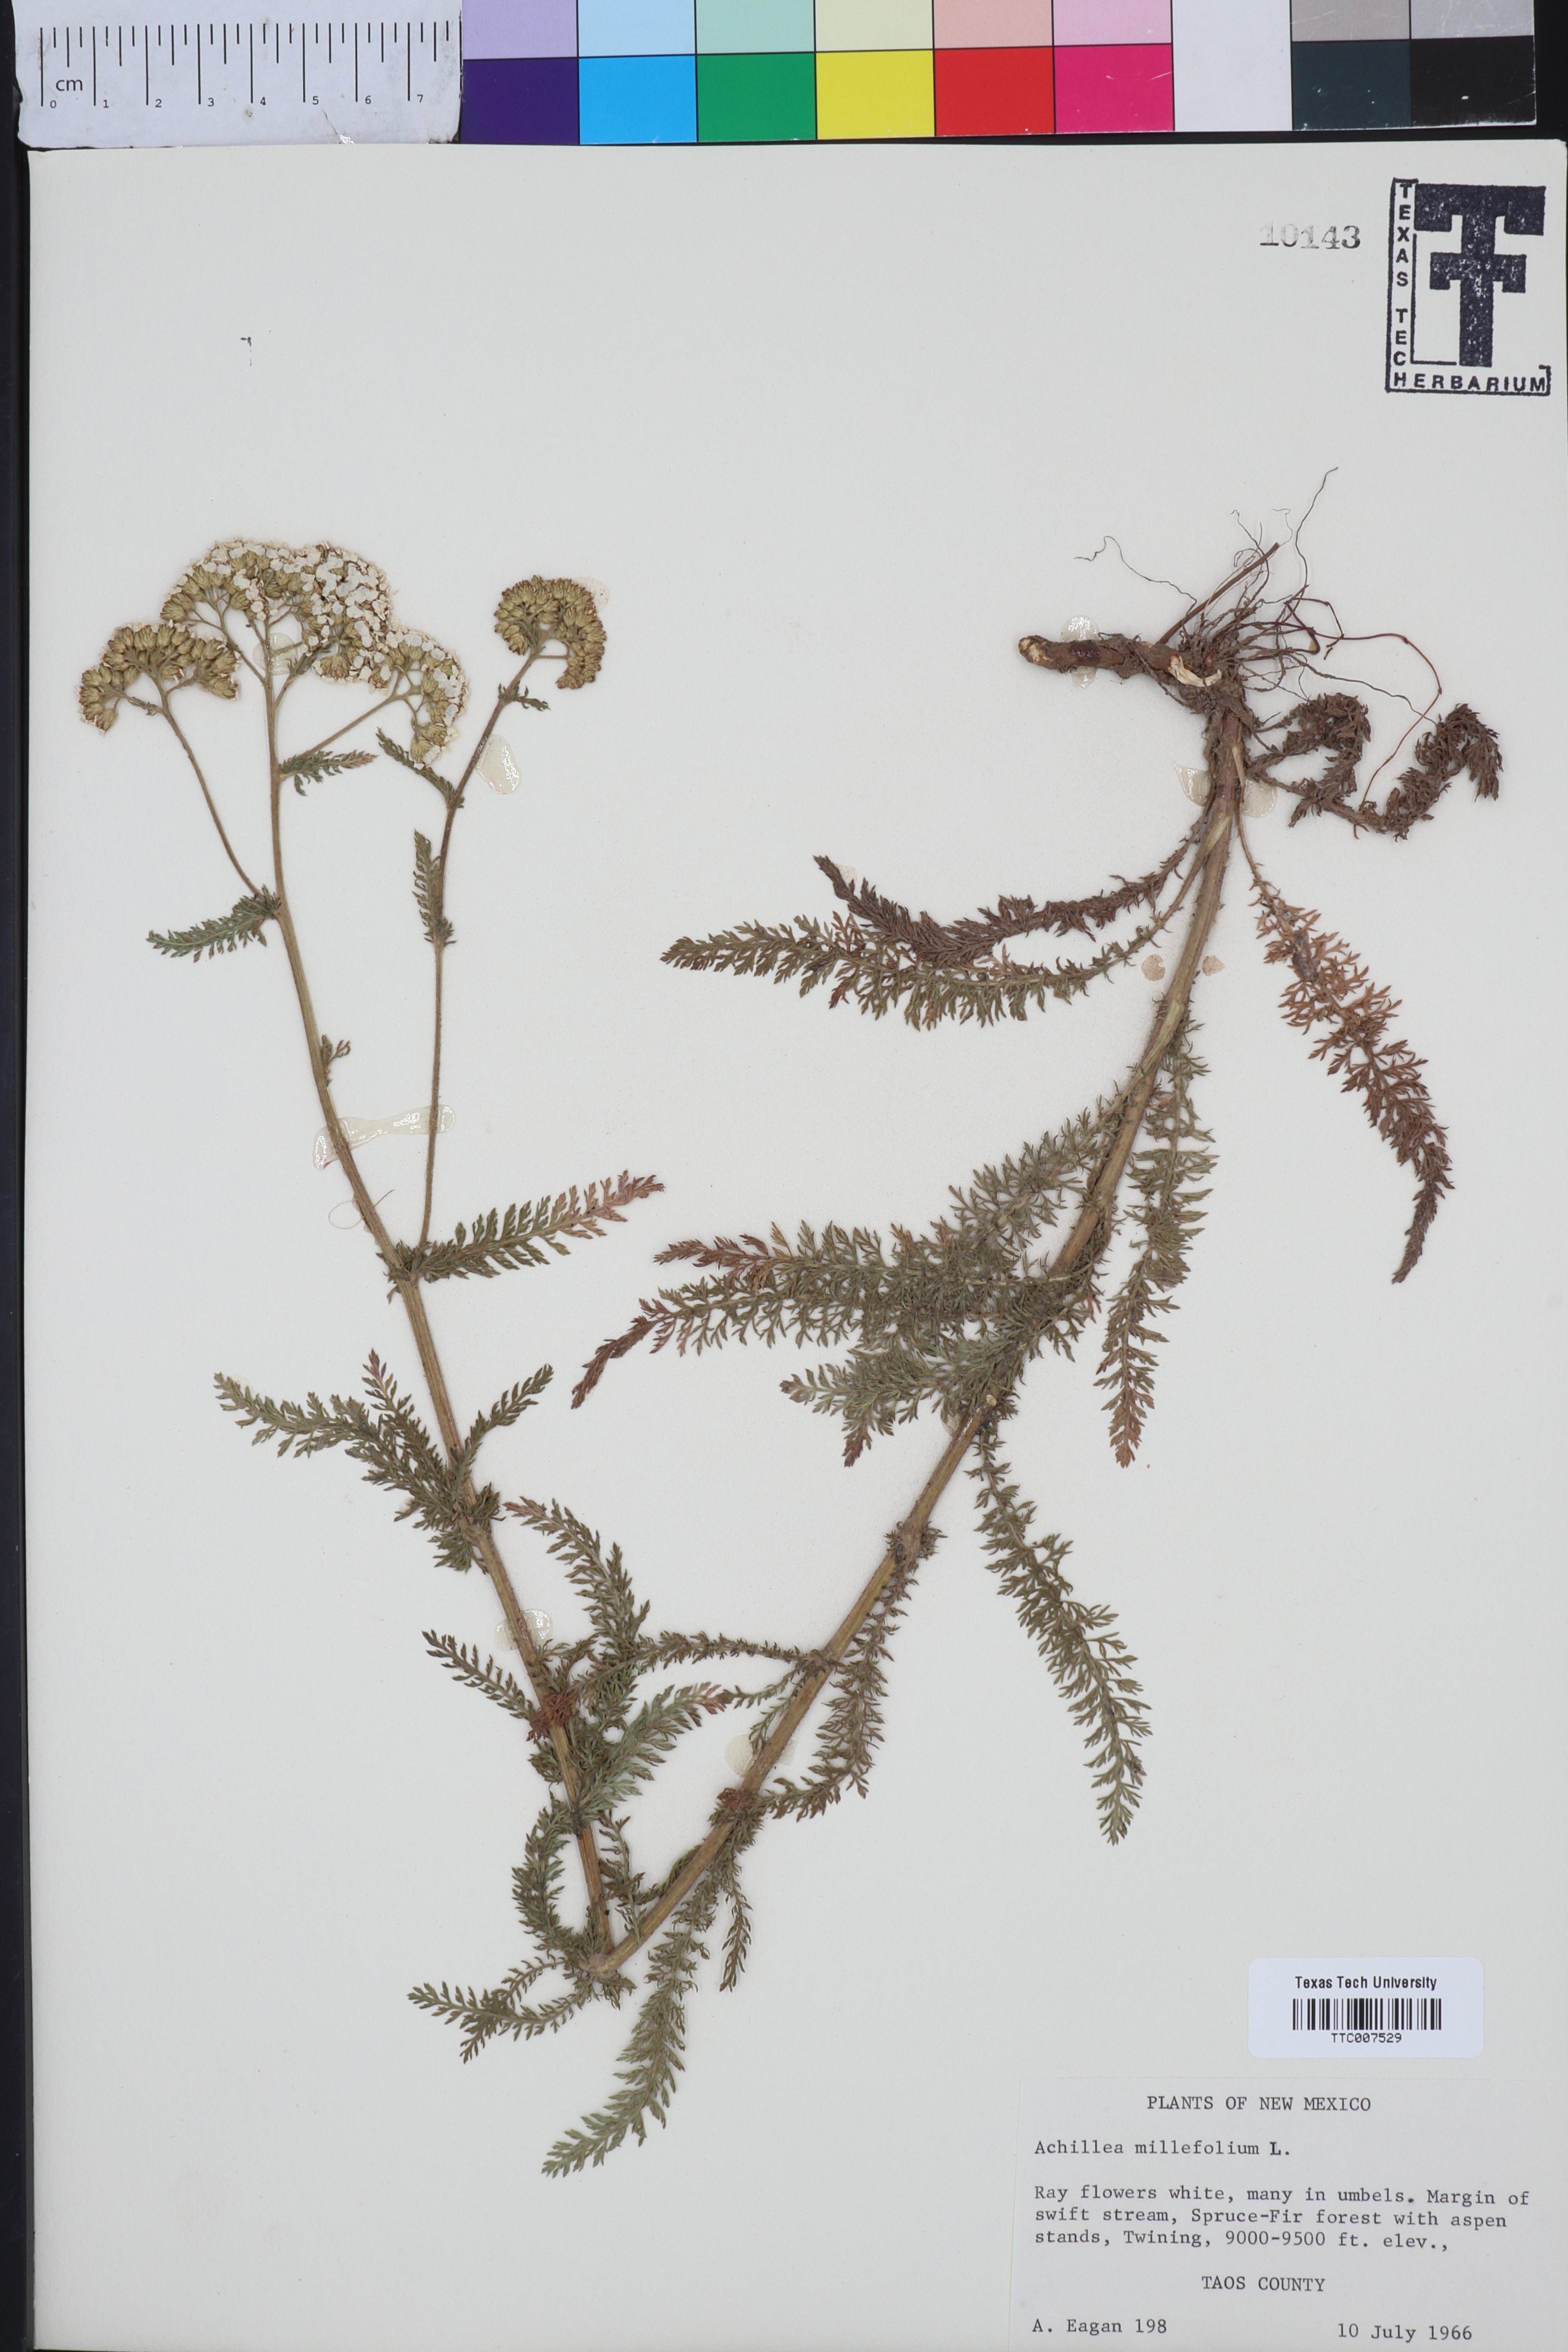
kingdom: Plantae
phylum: Tracheophyta
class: Magnoliopsida
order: Asterales
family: Asteraceae
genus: Achillea
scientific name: Achillea millefolium
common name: Yarrow
